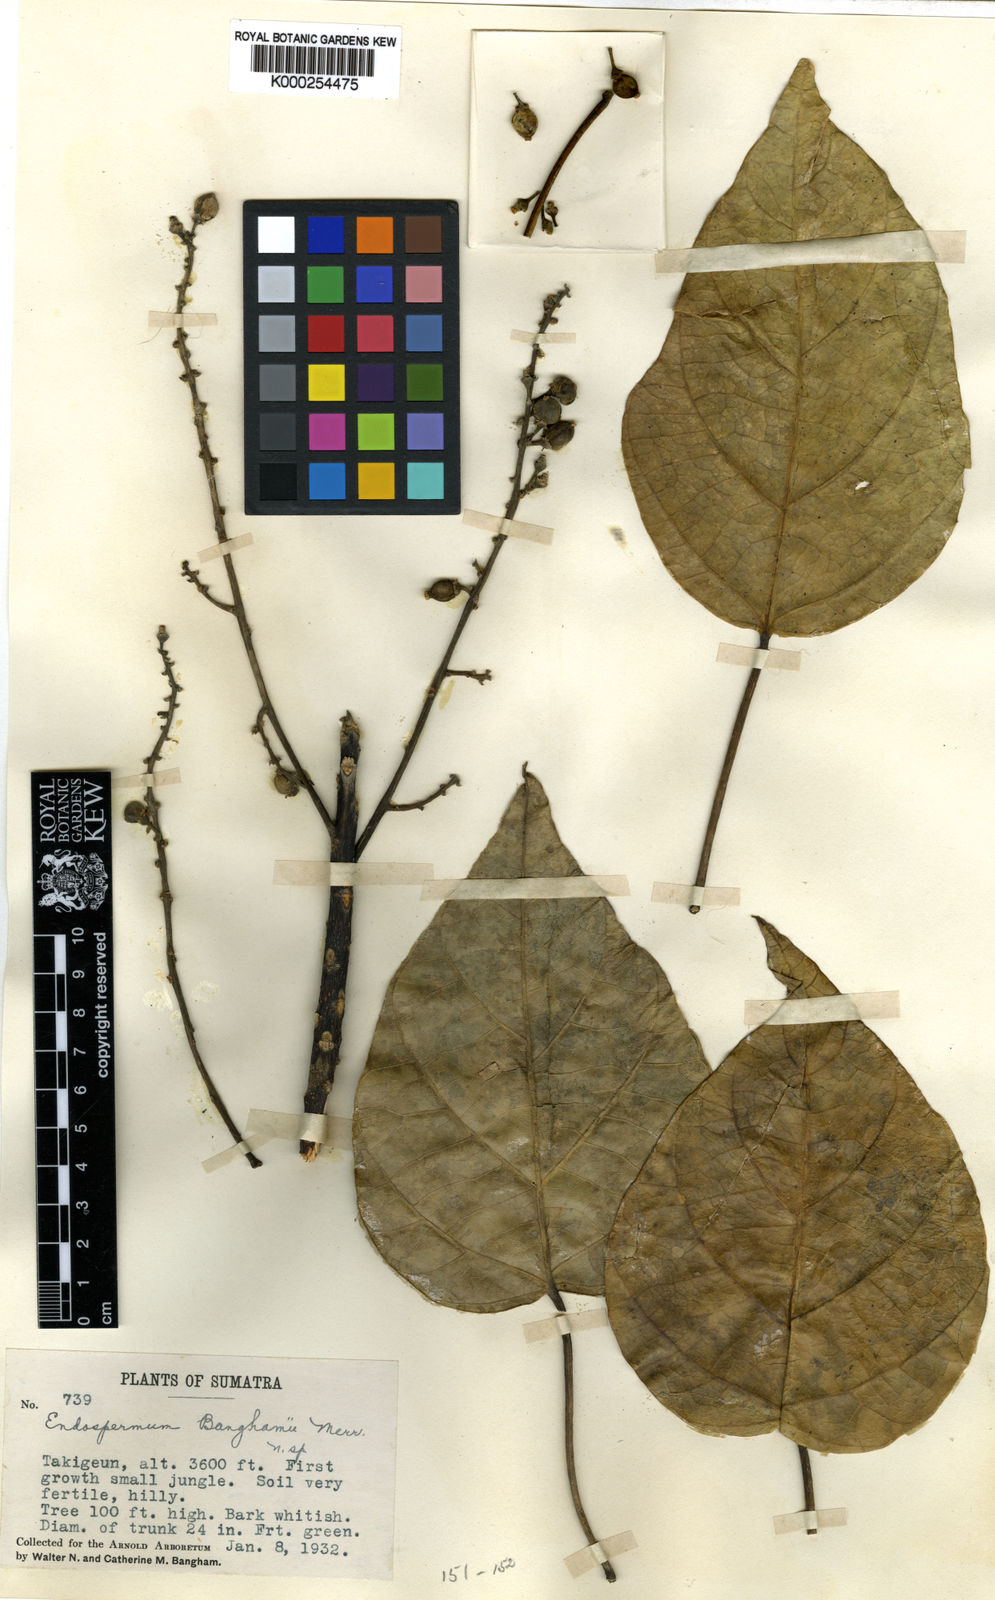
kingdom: Plantae
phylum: Tracheophyta
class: Magnoliopsida
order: Malpighiales
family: Euphorbiaceae
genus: Endospermum
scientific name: Endospermum quadriloculare
